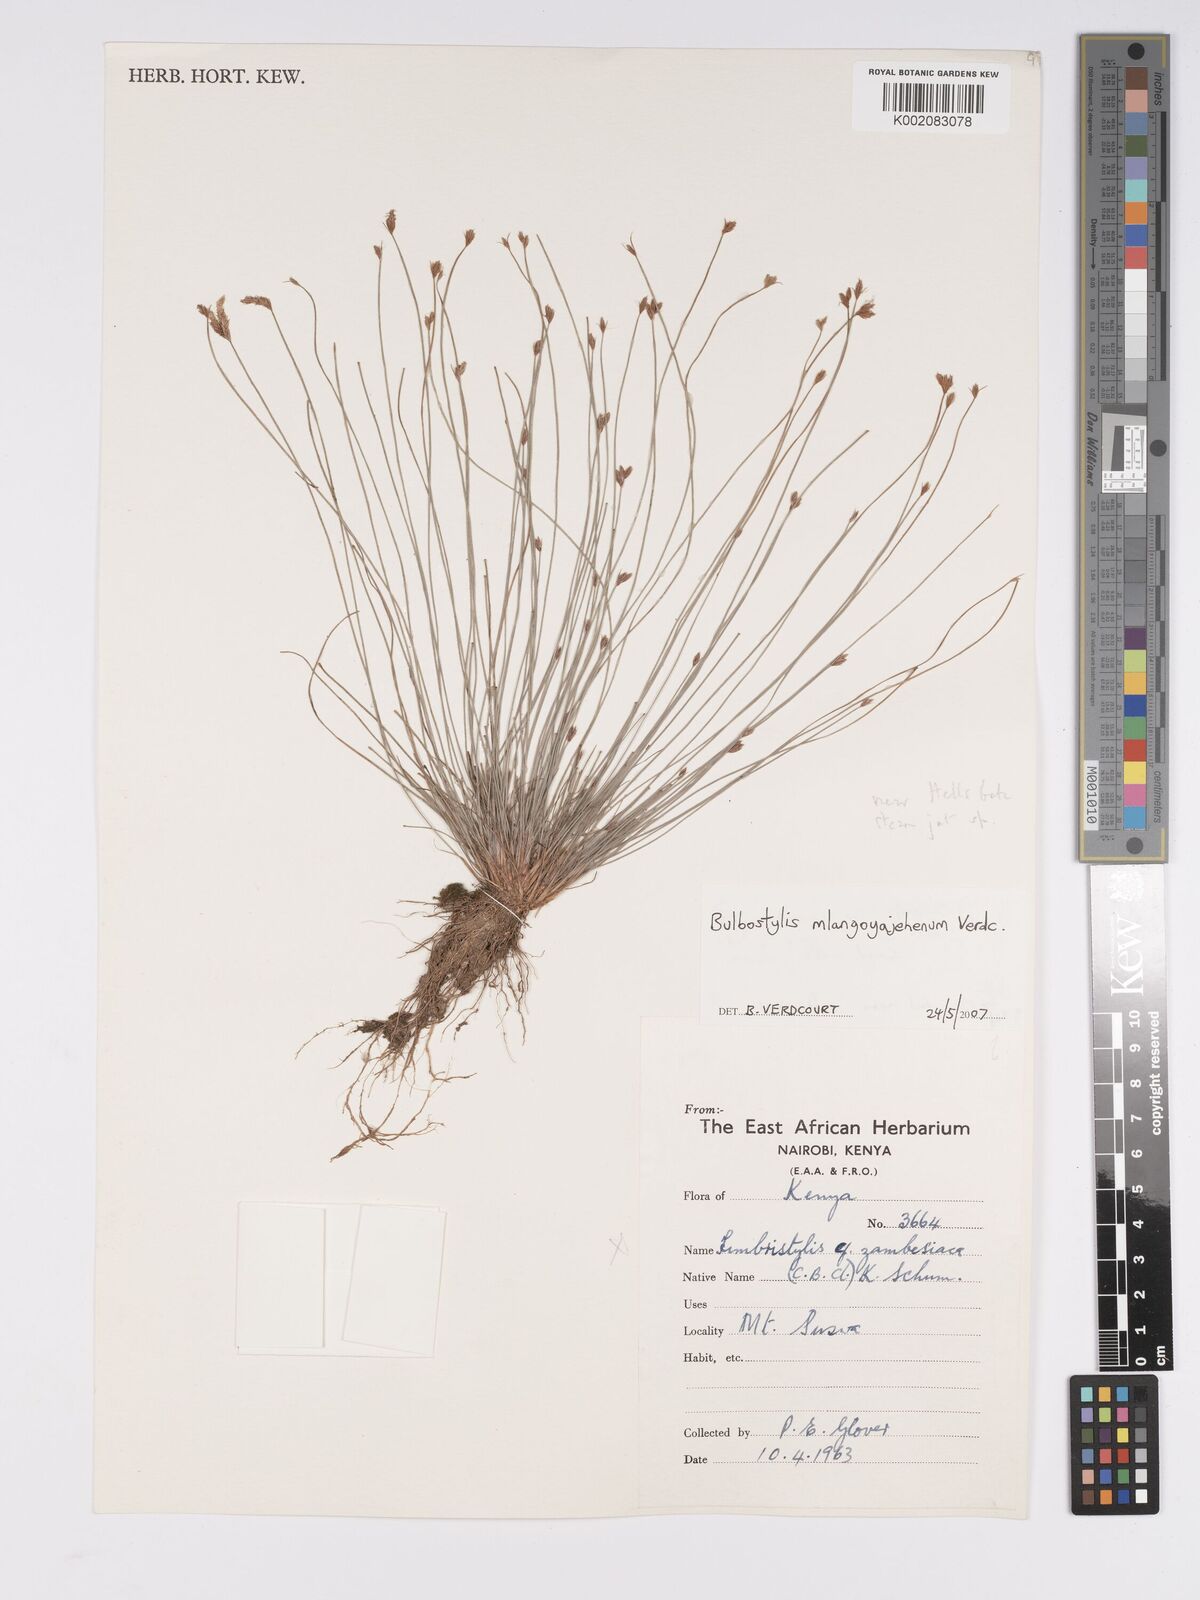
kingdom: Plantae
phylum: Tracheophyta
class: Liliopsida
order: Poales
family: Cyperaceae
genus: Bulbostylis
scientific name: Bulbostylis mlangoyajehenum
